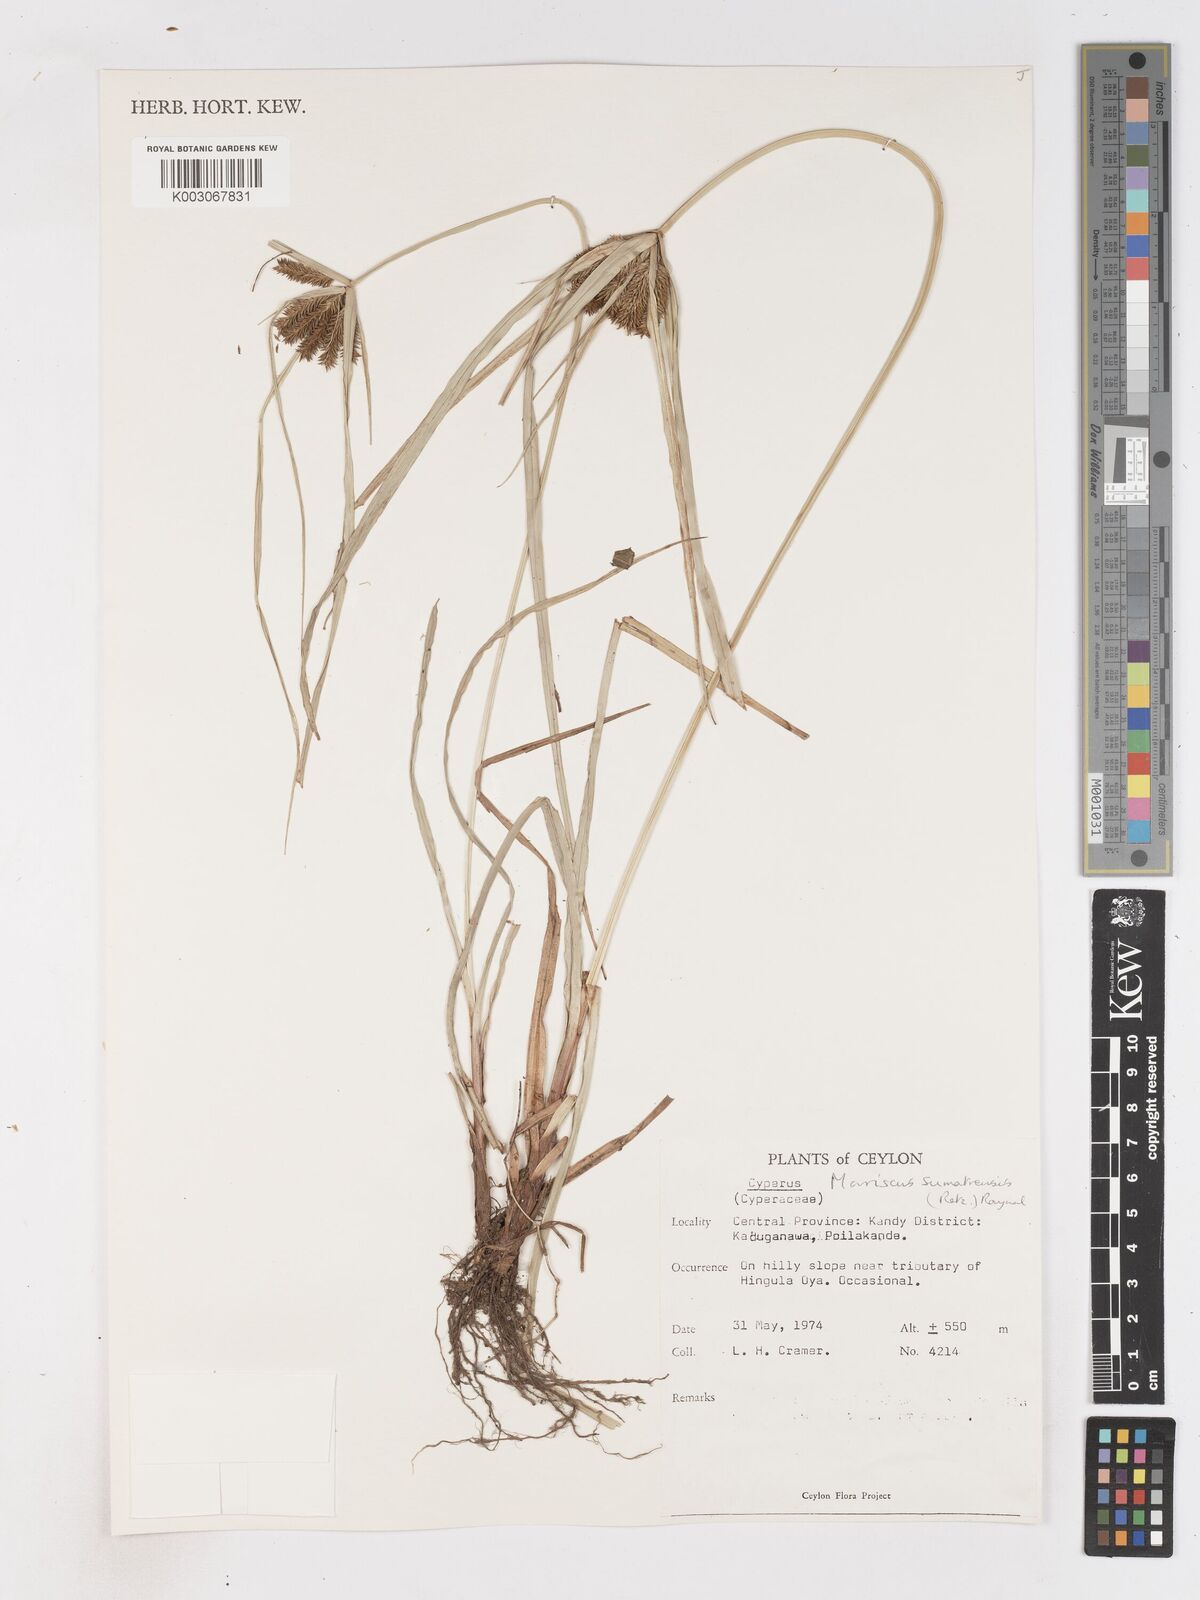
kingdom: Plantae
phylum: Tracheophyta
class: Liliopsida
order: Poales
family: Cyperaceae
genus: Cyperus
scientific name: Cyperus cyperoides
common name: Pacific island flat sedge
